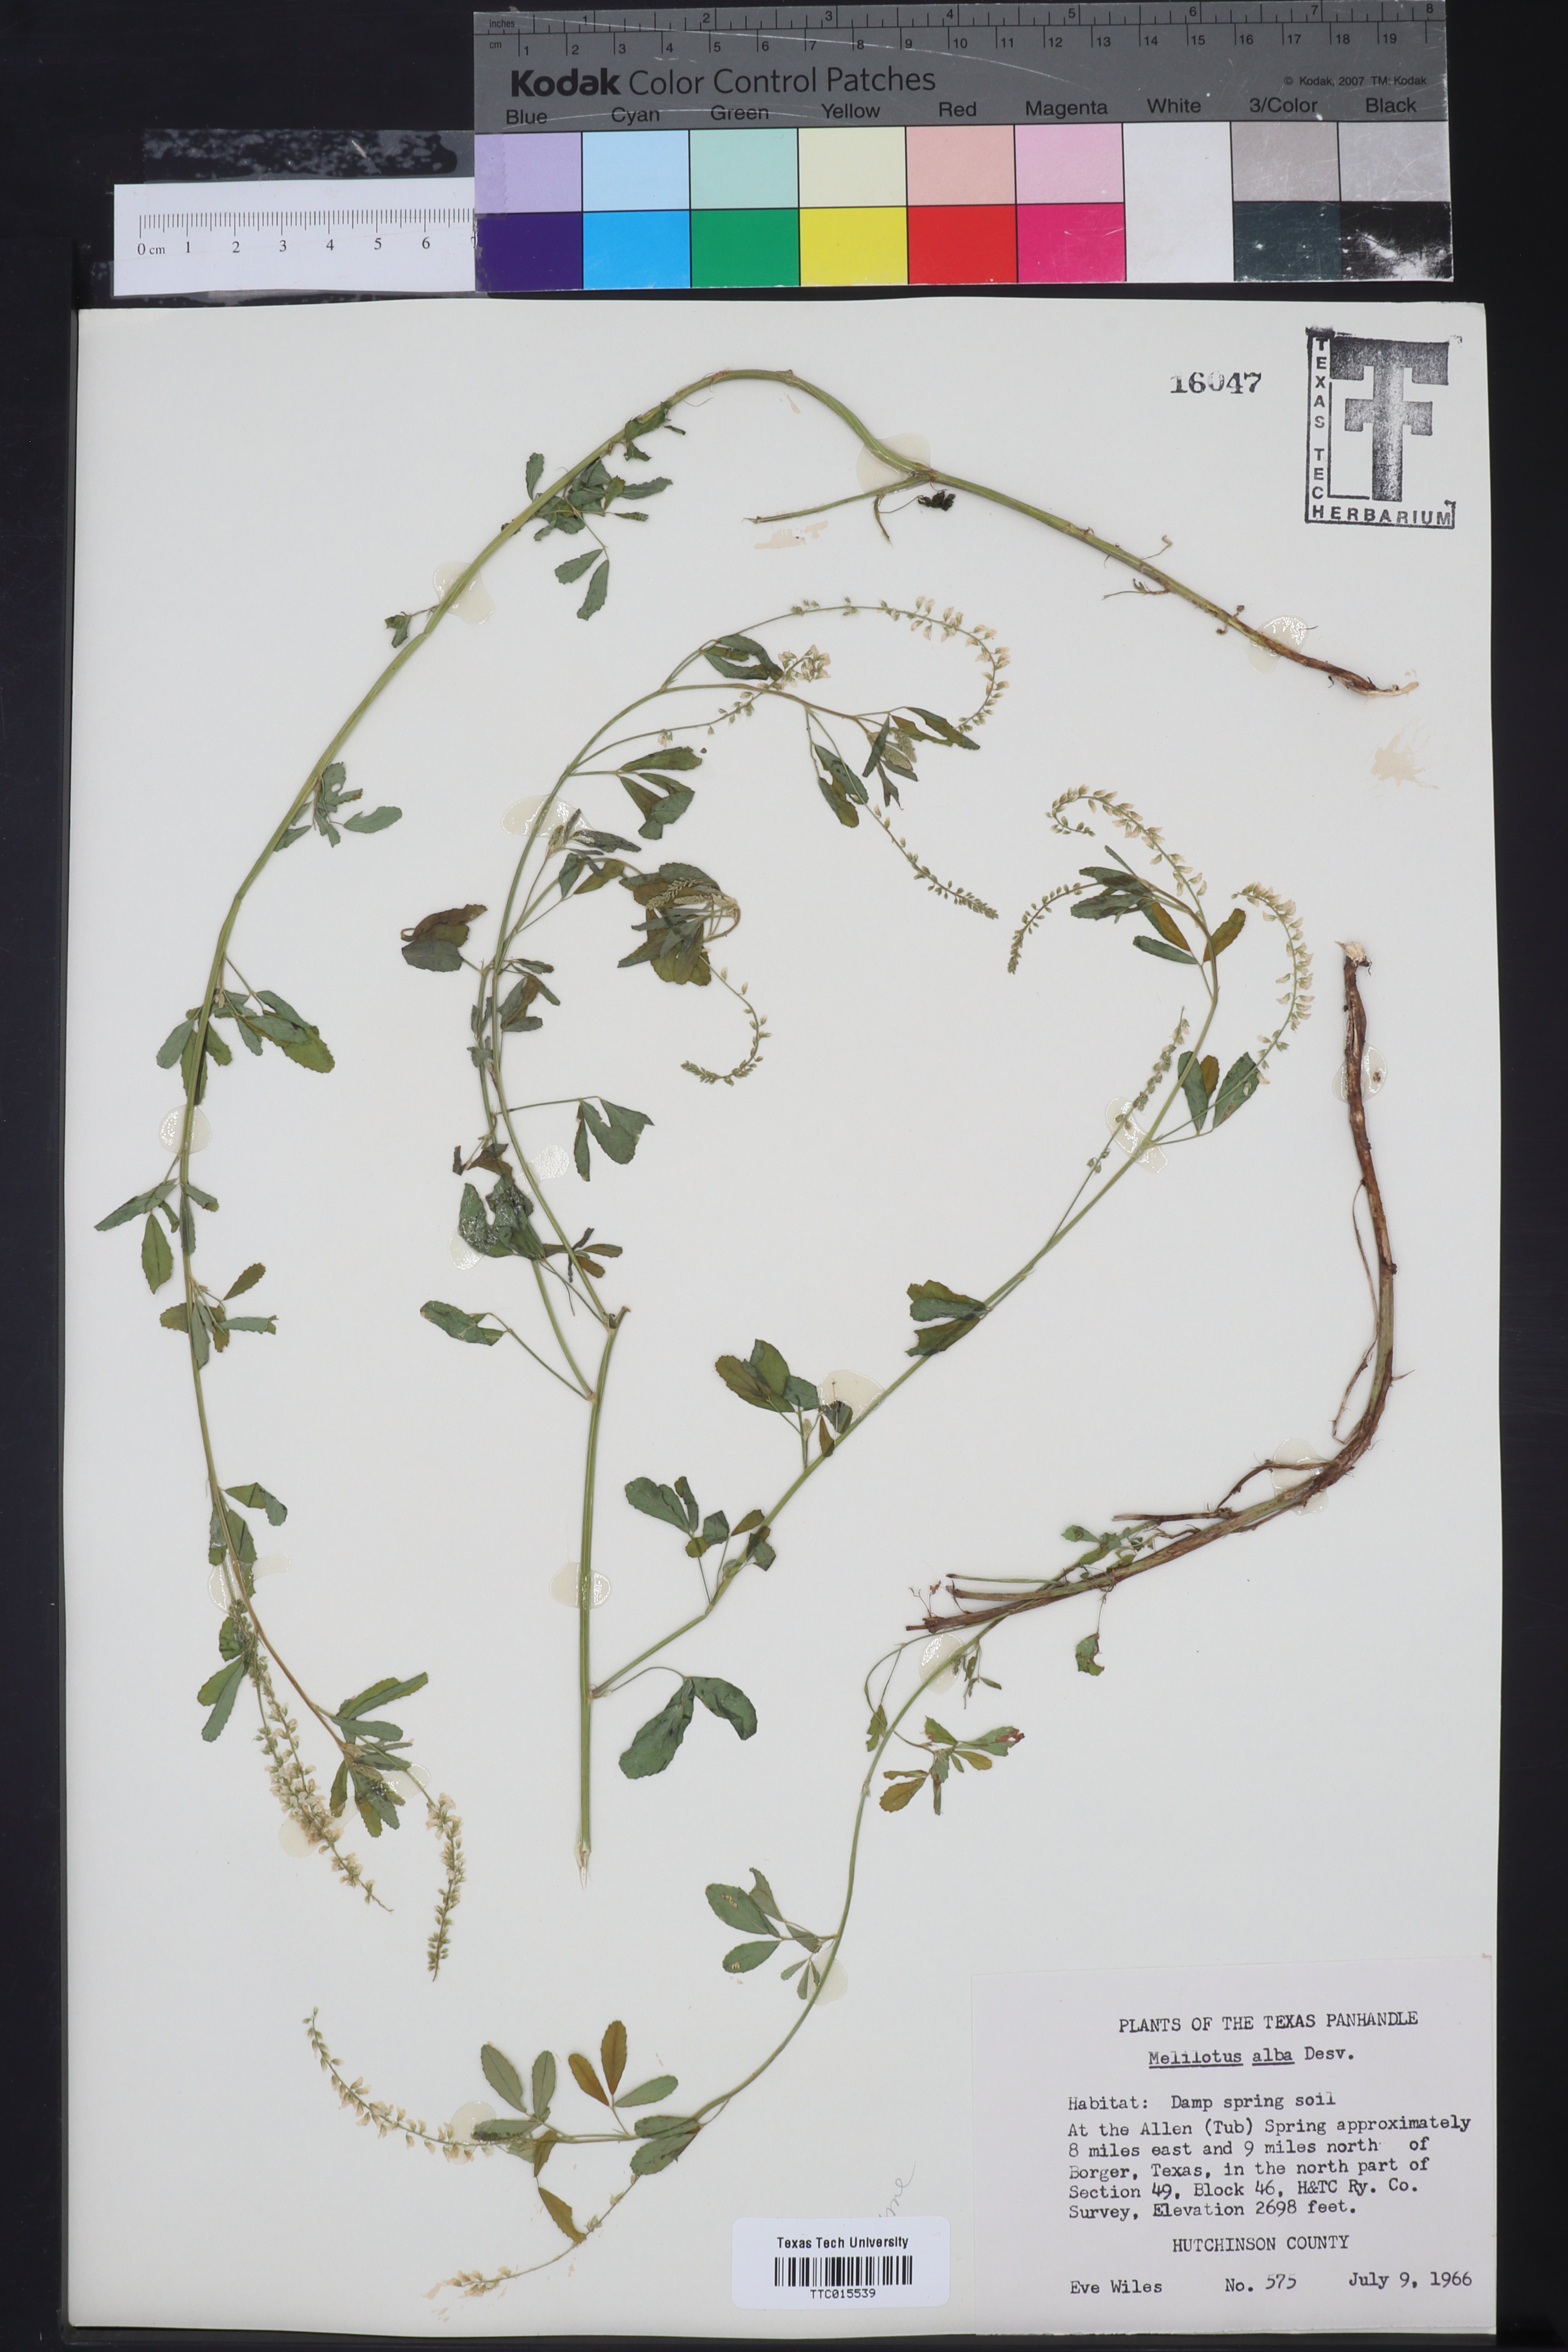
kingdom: Plantae
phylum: Tracheophyta
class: Magnoliopsida
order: Fabales
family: Fabaceae
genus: Melilotus
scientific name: Melilotus albus
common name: White melilot
